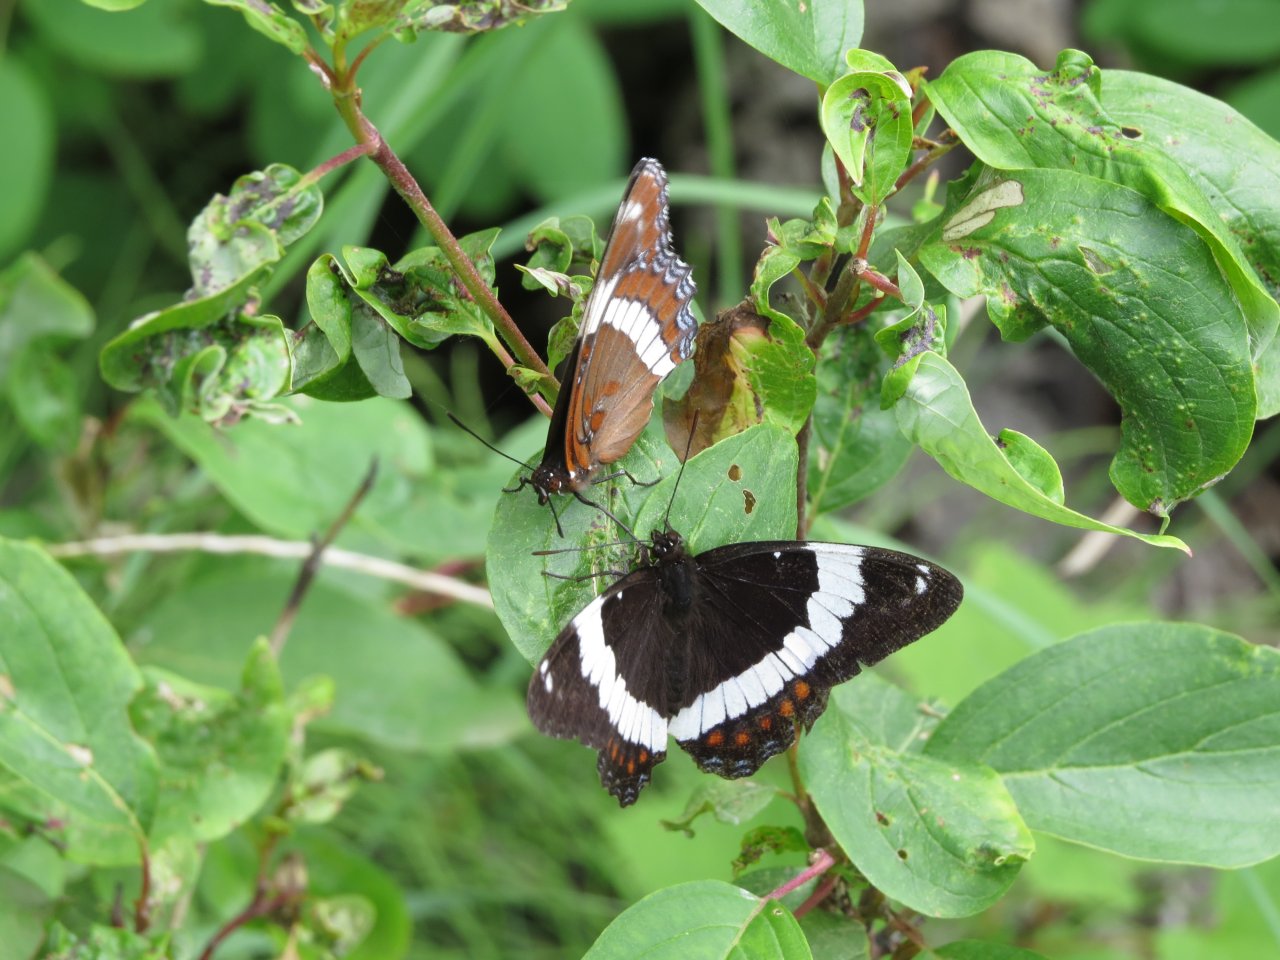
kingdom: Animalia
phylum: Arthropoda
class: Insecta
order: Lepidoptera
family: Nymphalidae
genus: Limenitis
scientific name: Limenitis arthemis
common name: Red-spotted Admiral
